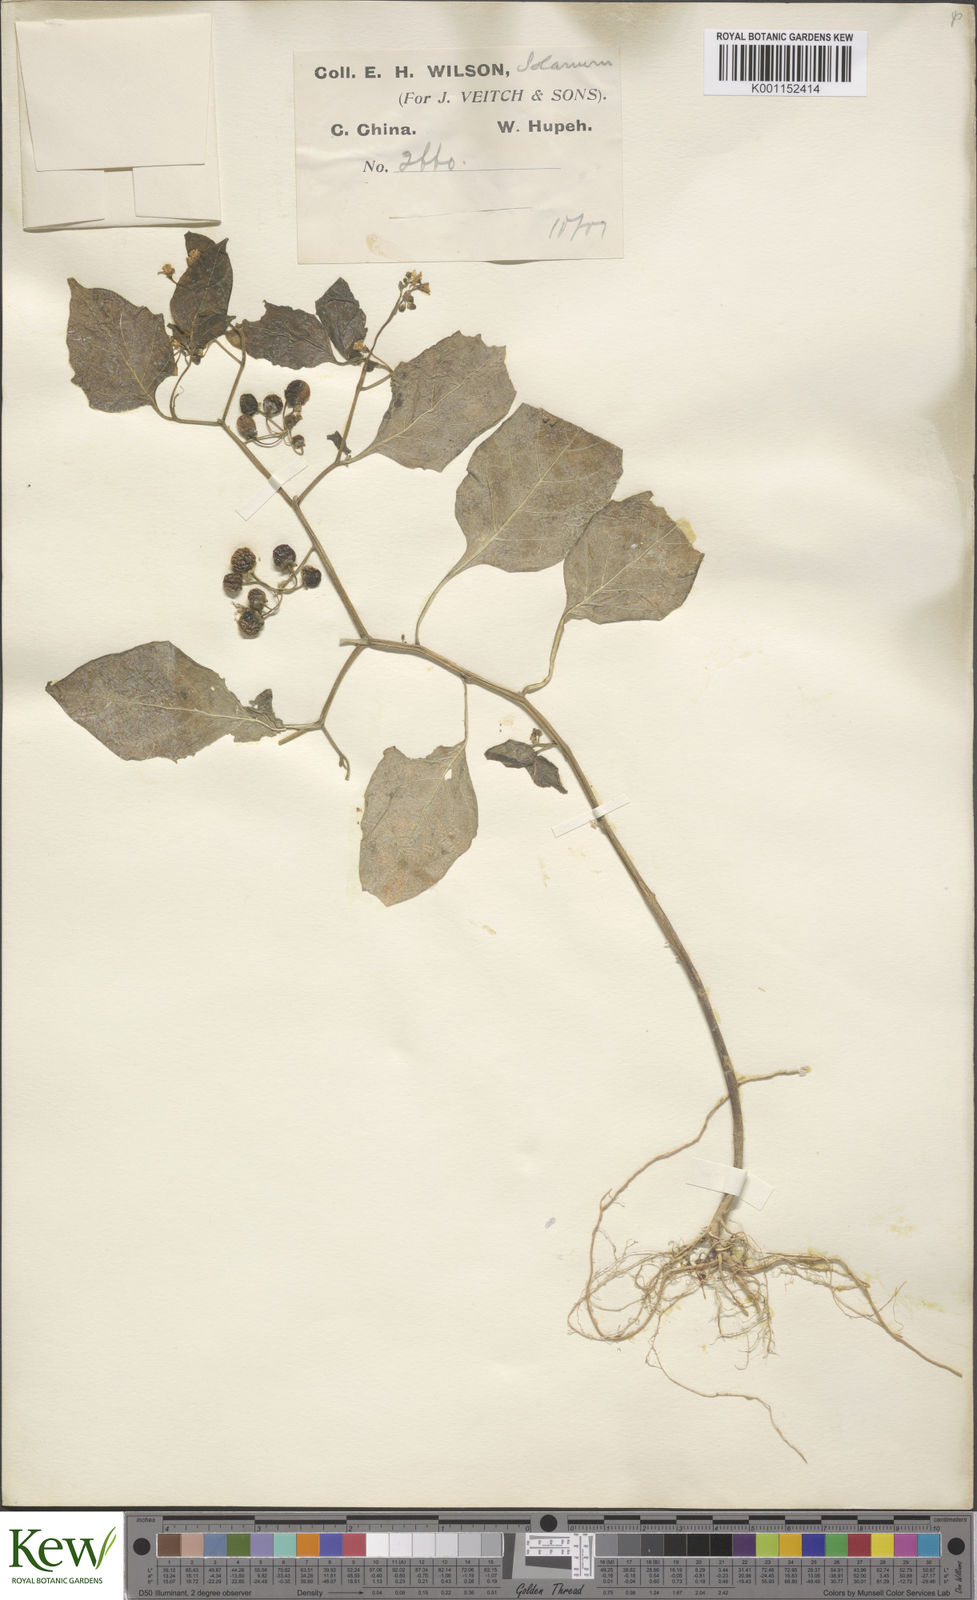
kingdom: Plantae
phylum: Tracheophyta
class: Magnoliopsida
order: Solanales
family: Solanaceae
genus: Solanum
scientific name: Solanum scabrum
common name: Garden-huckleberry
